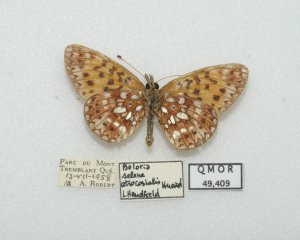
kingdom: Animalia
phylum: Arthropoda
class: Insecta
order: Lepidoptera
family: Nymphalidae
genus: Boloria
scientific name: Boloria selene
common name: Silver-bordered Fritillary
